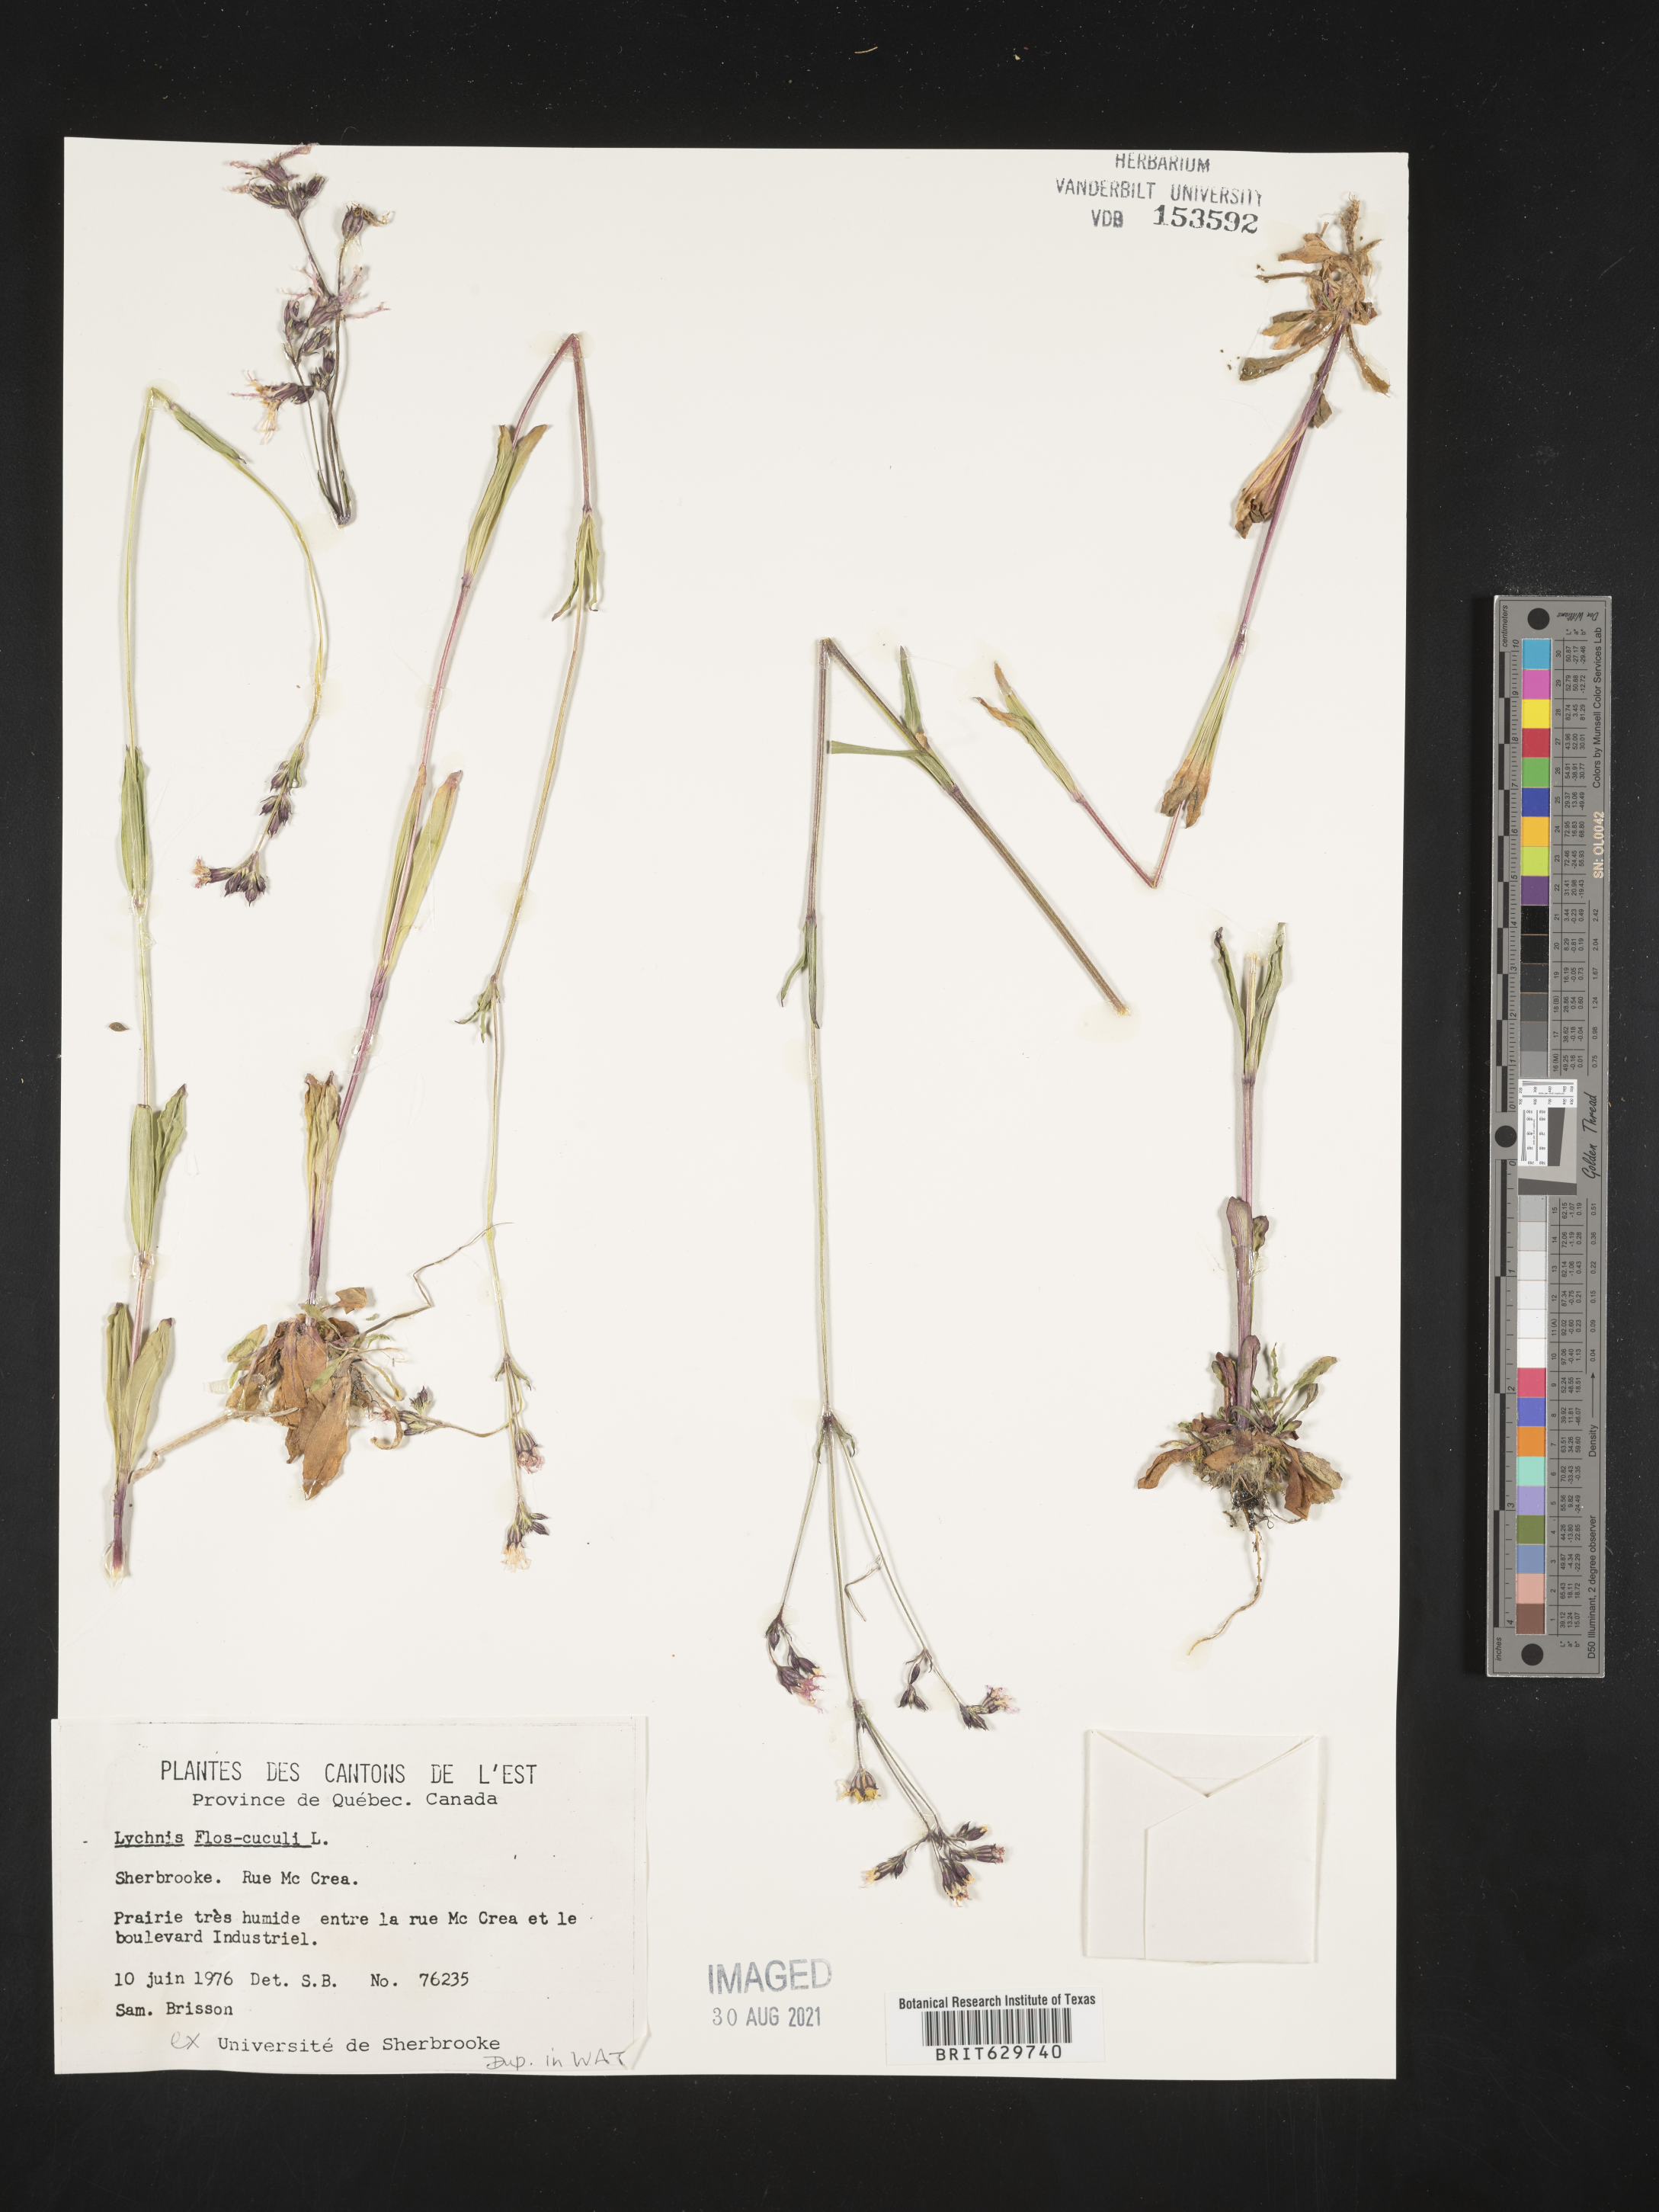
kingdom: Plantae
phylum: Tracheophyta
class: Magnoliopsida
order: Caryophyllales
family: Caryophyllaceae
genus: Silene
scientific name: Silene flos-cuculi
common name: Ragged-robin
